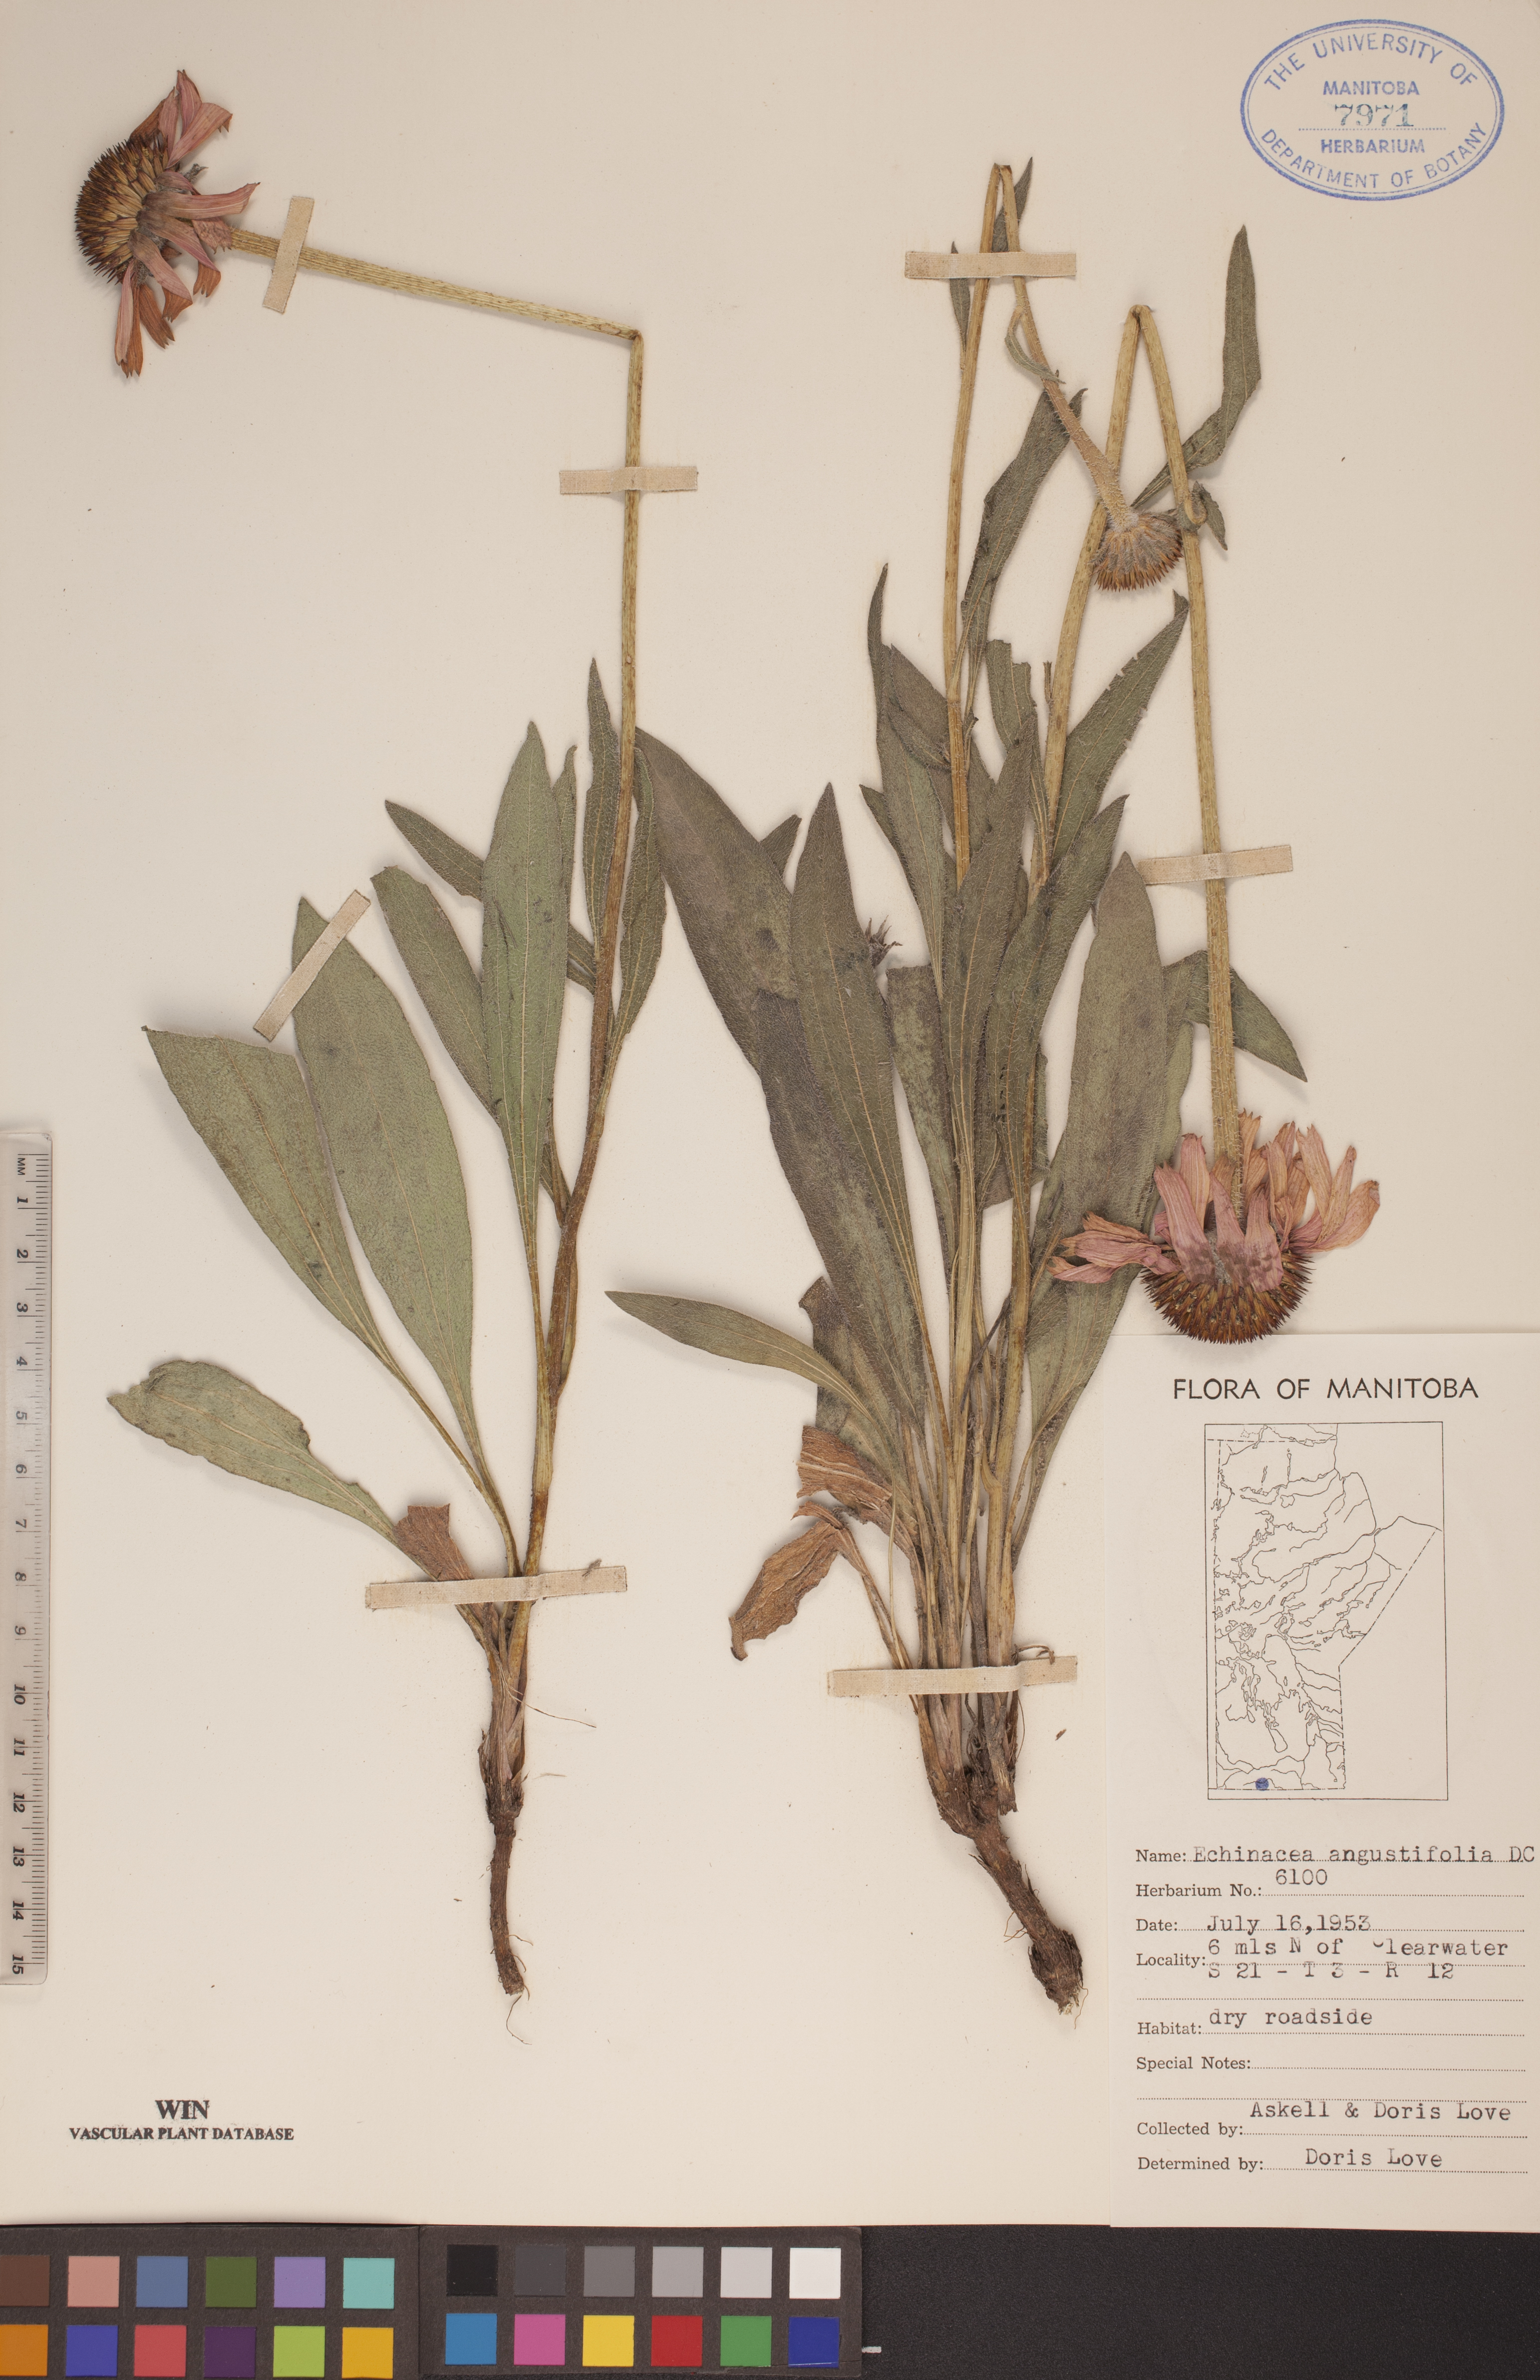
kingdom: Plantae
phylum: Tracheophyta
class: Magnoliopsida
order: Asterales
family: Asteraceae
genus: Echinacea
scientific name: Echinacea angustifolia
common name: Black-sampson echinacea
